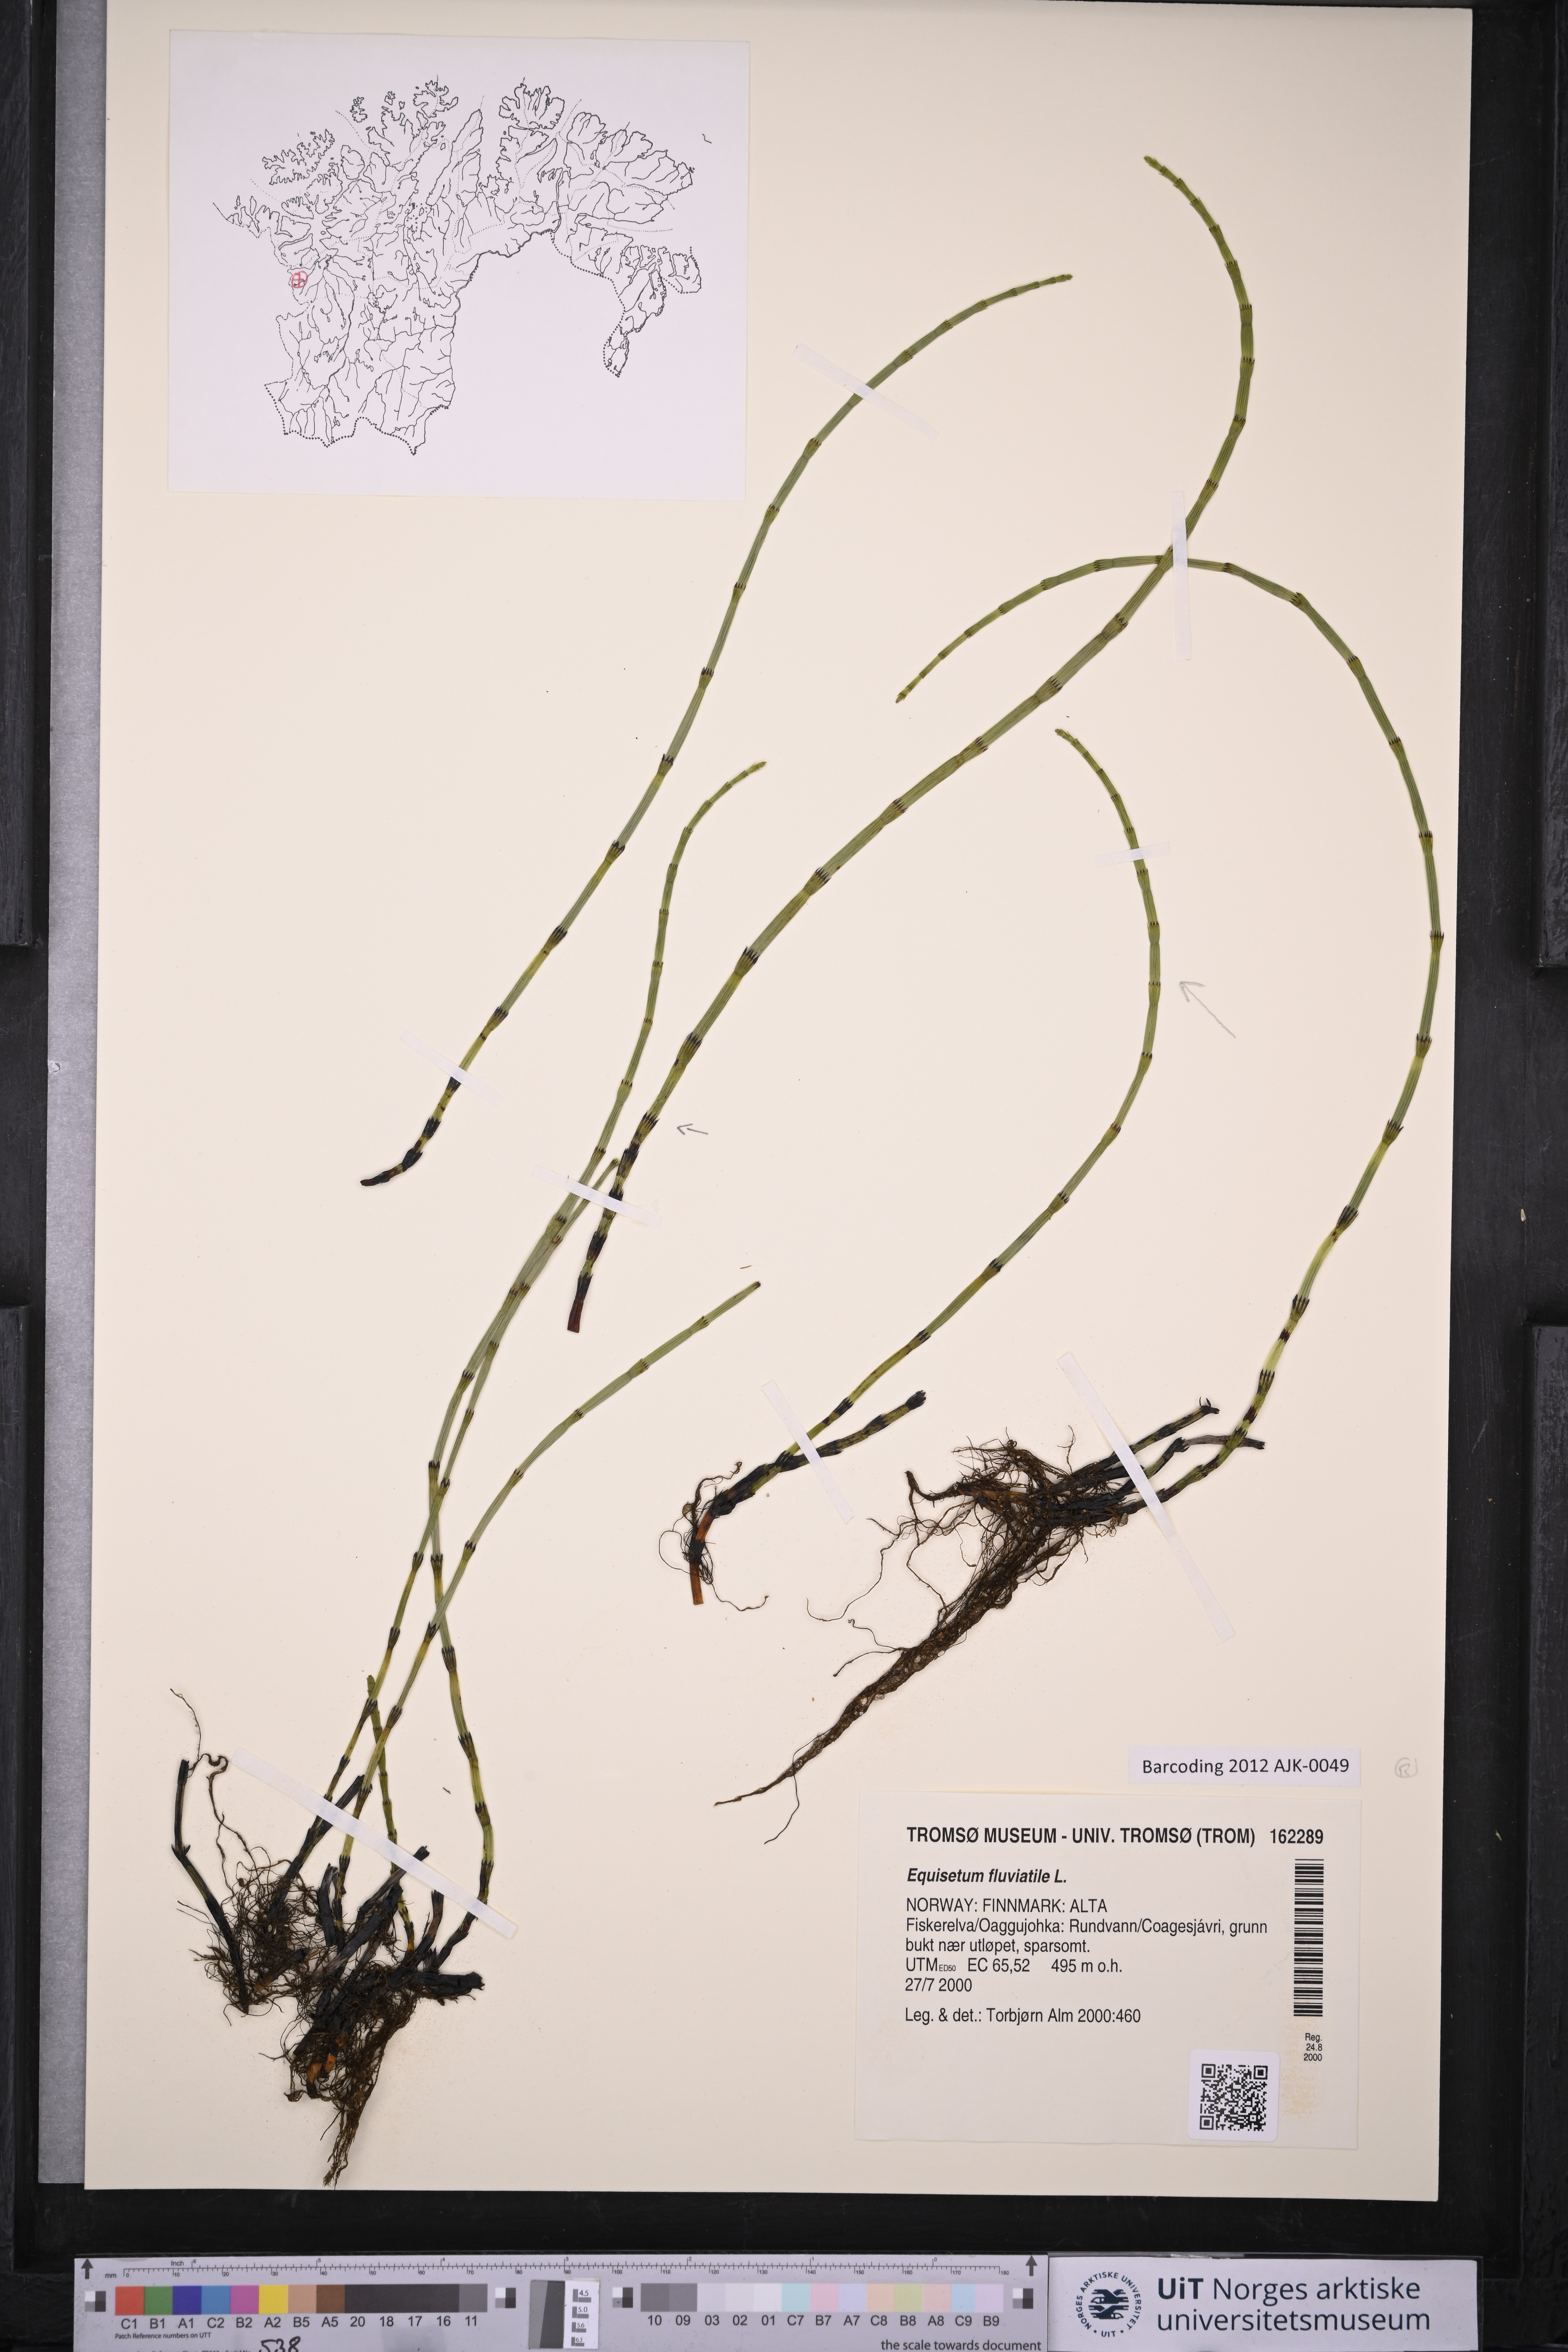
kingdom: Plantae
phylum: Tracheophyta
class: Polypodiopsida
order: Equisetales
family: Equisetaceae
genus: Equisetum
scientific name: Equisetum fluviatile
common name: Water horsetail
